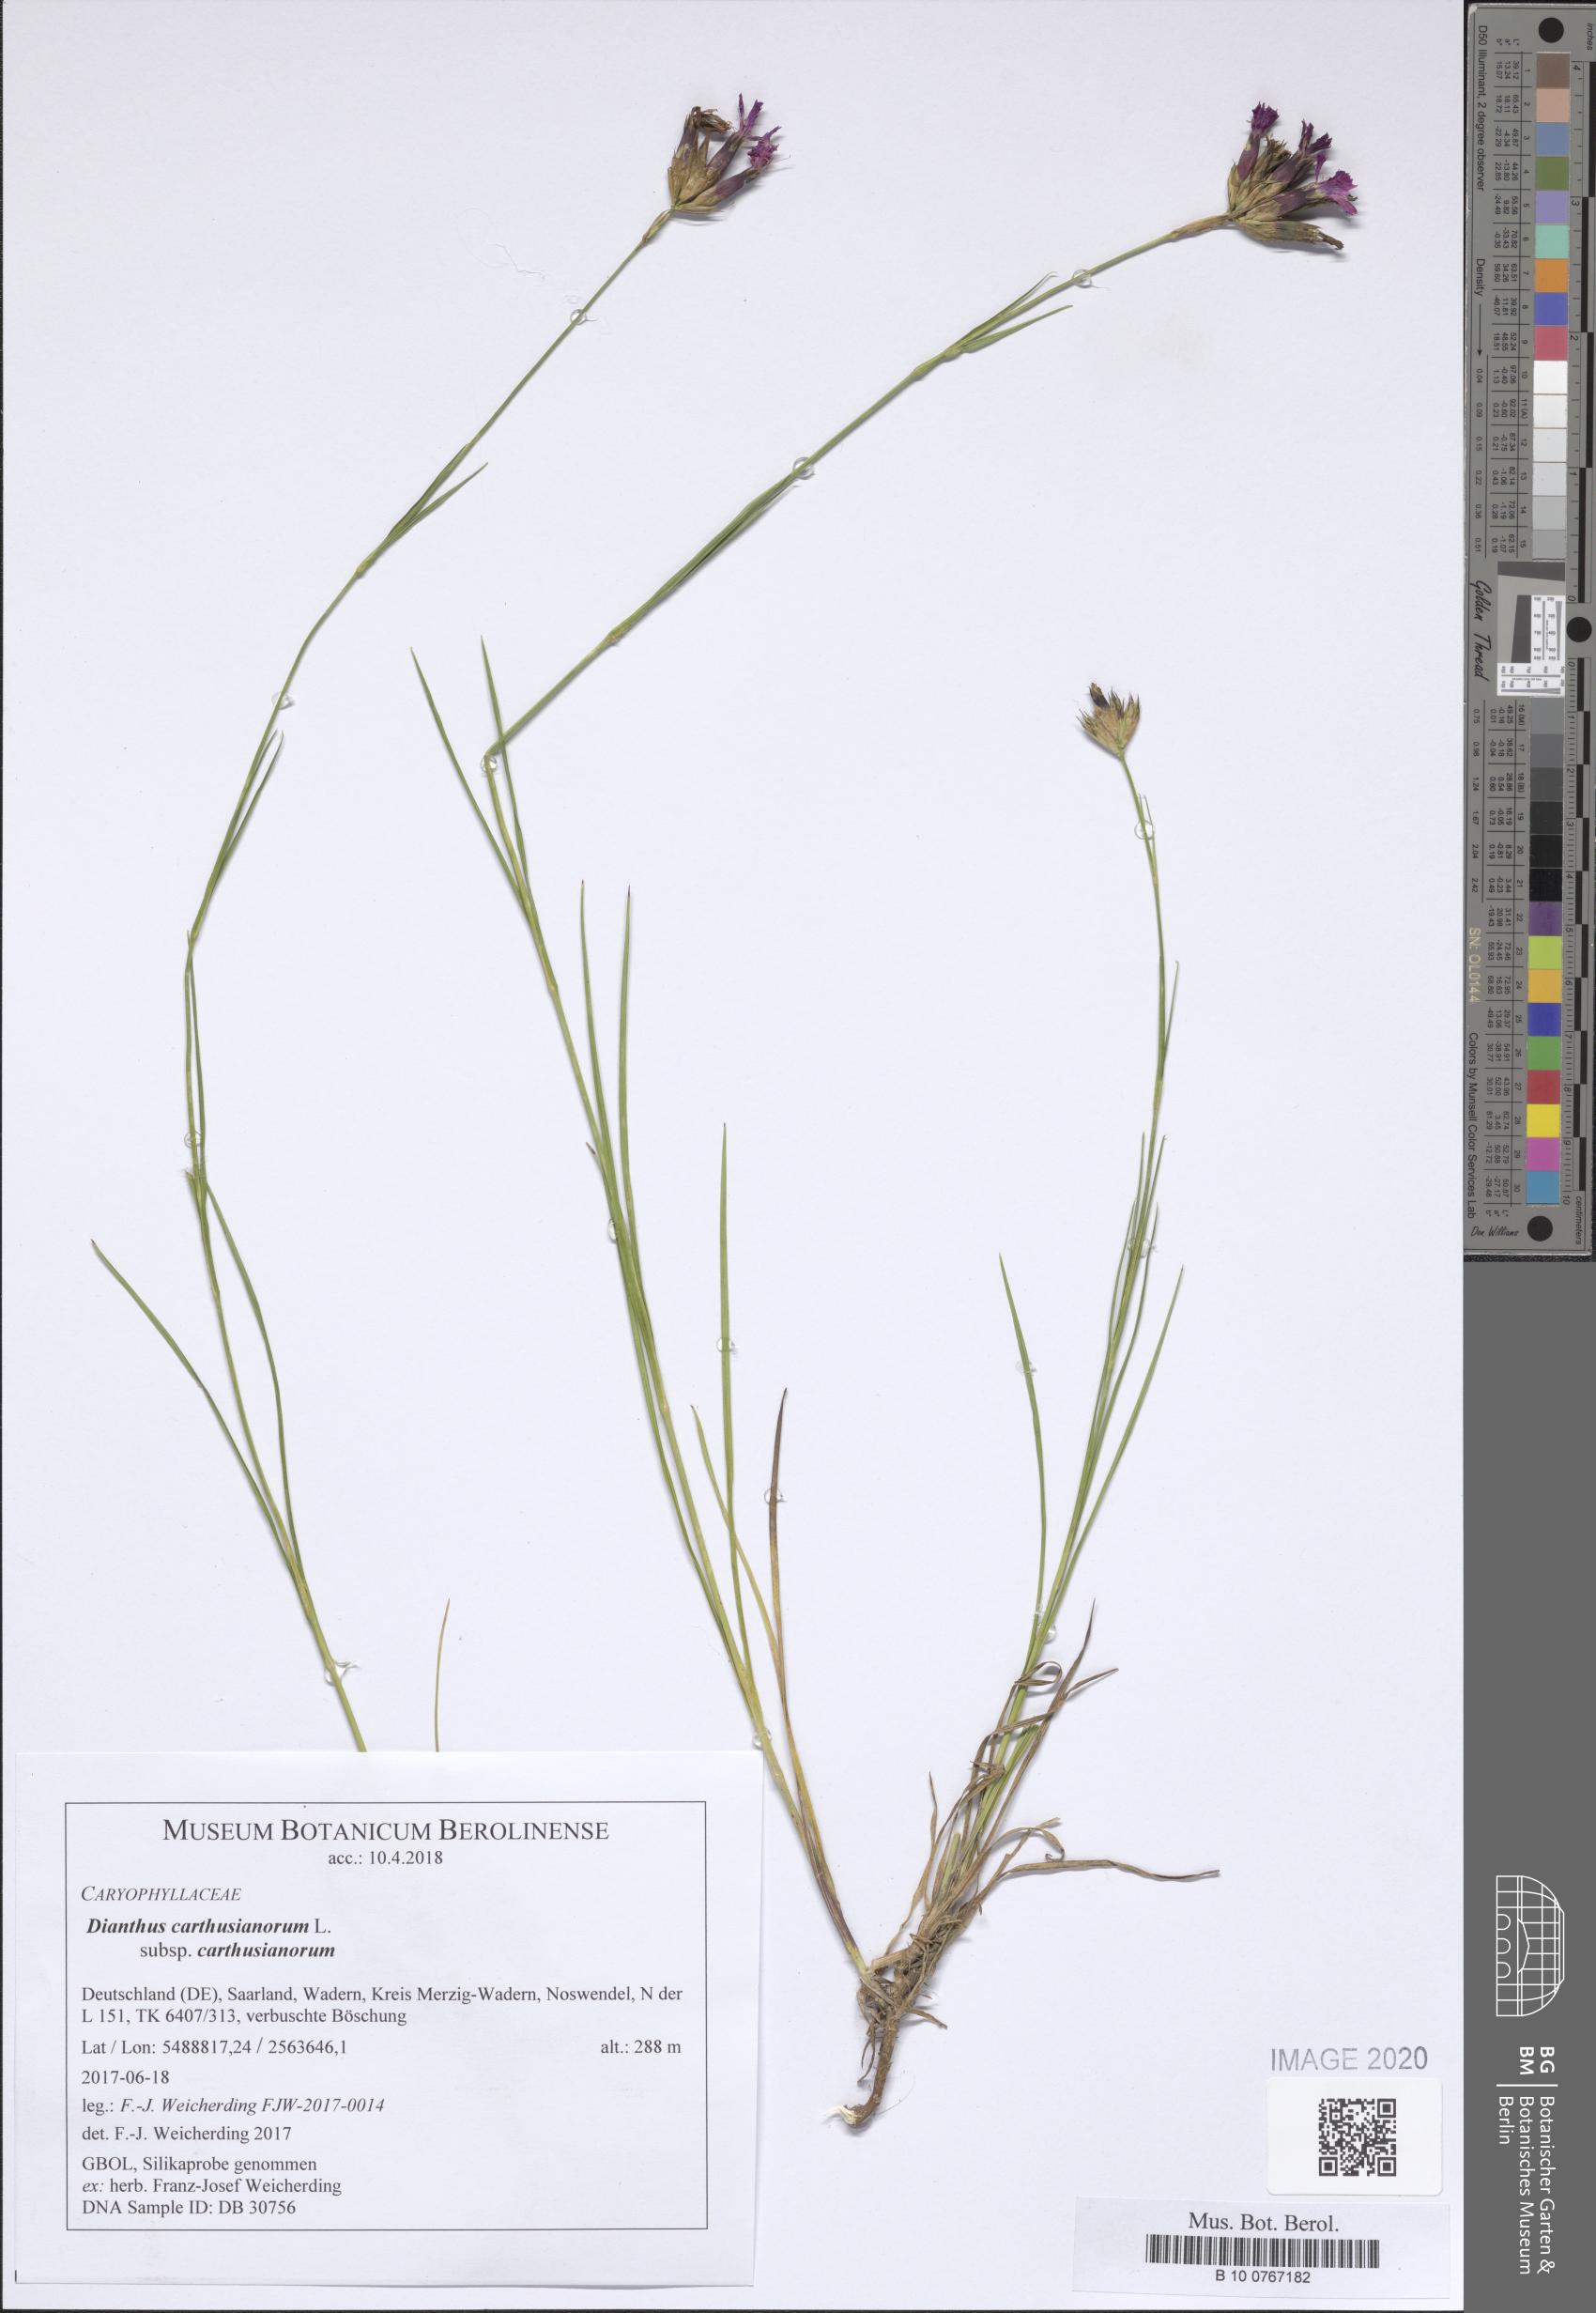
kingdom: Plantae
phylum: Tracheophyta
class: Magnoliopsida
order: Caryophyllales
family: Caryophyllaceae
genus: Dianthus
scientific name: Dianthus carthusianorum
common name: Carthusian pink
